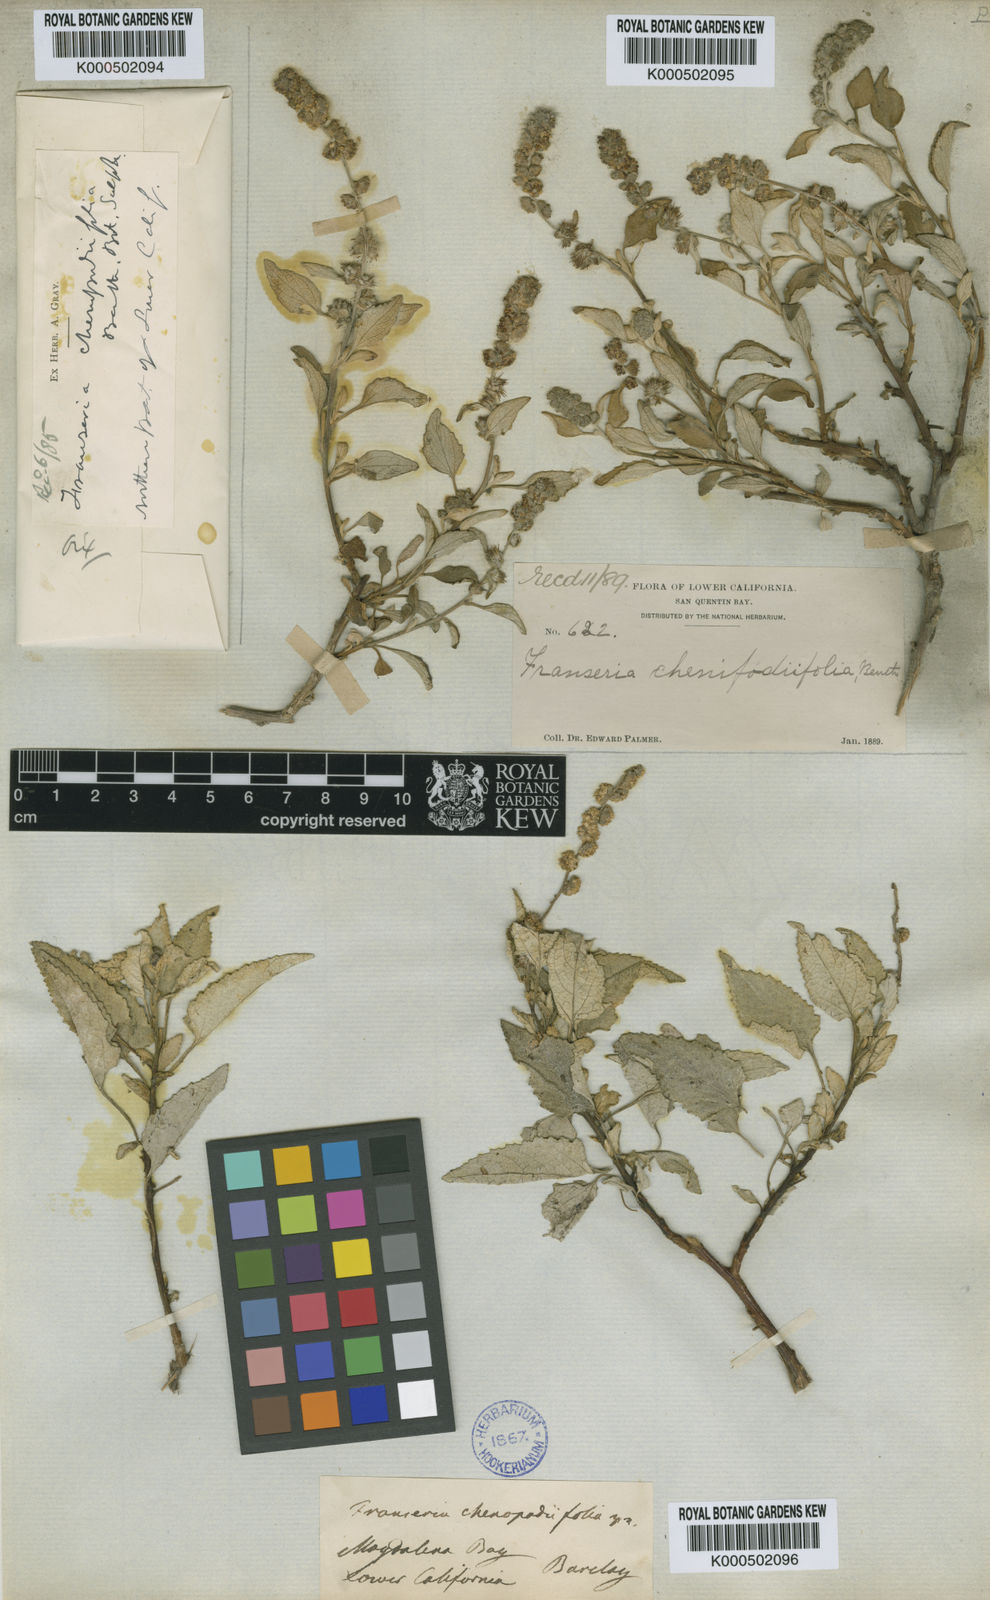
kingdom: Plantae
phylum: Tracheophyta
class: Magnoliopsida
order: Asterales
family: Asteraceae
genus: Ambrosia
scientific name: Ambrosia chenopodiifolia
